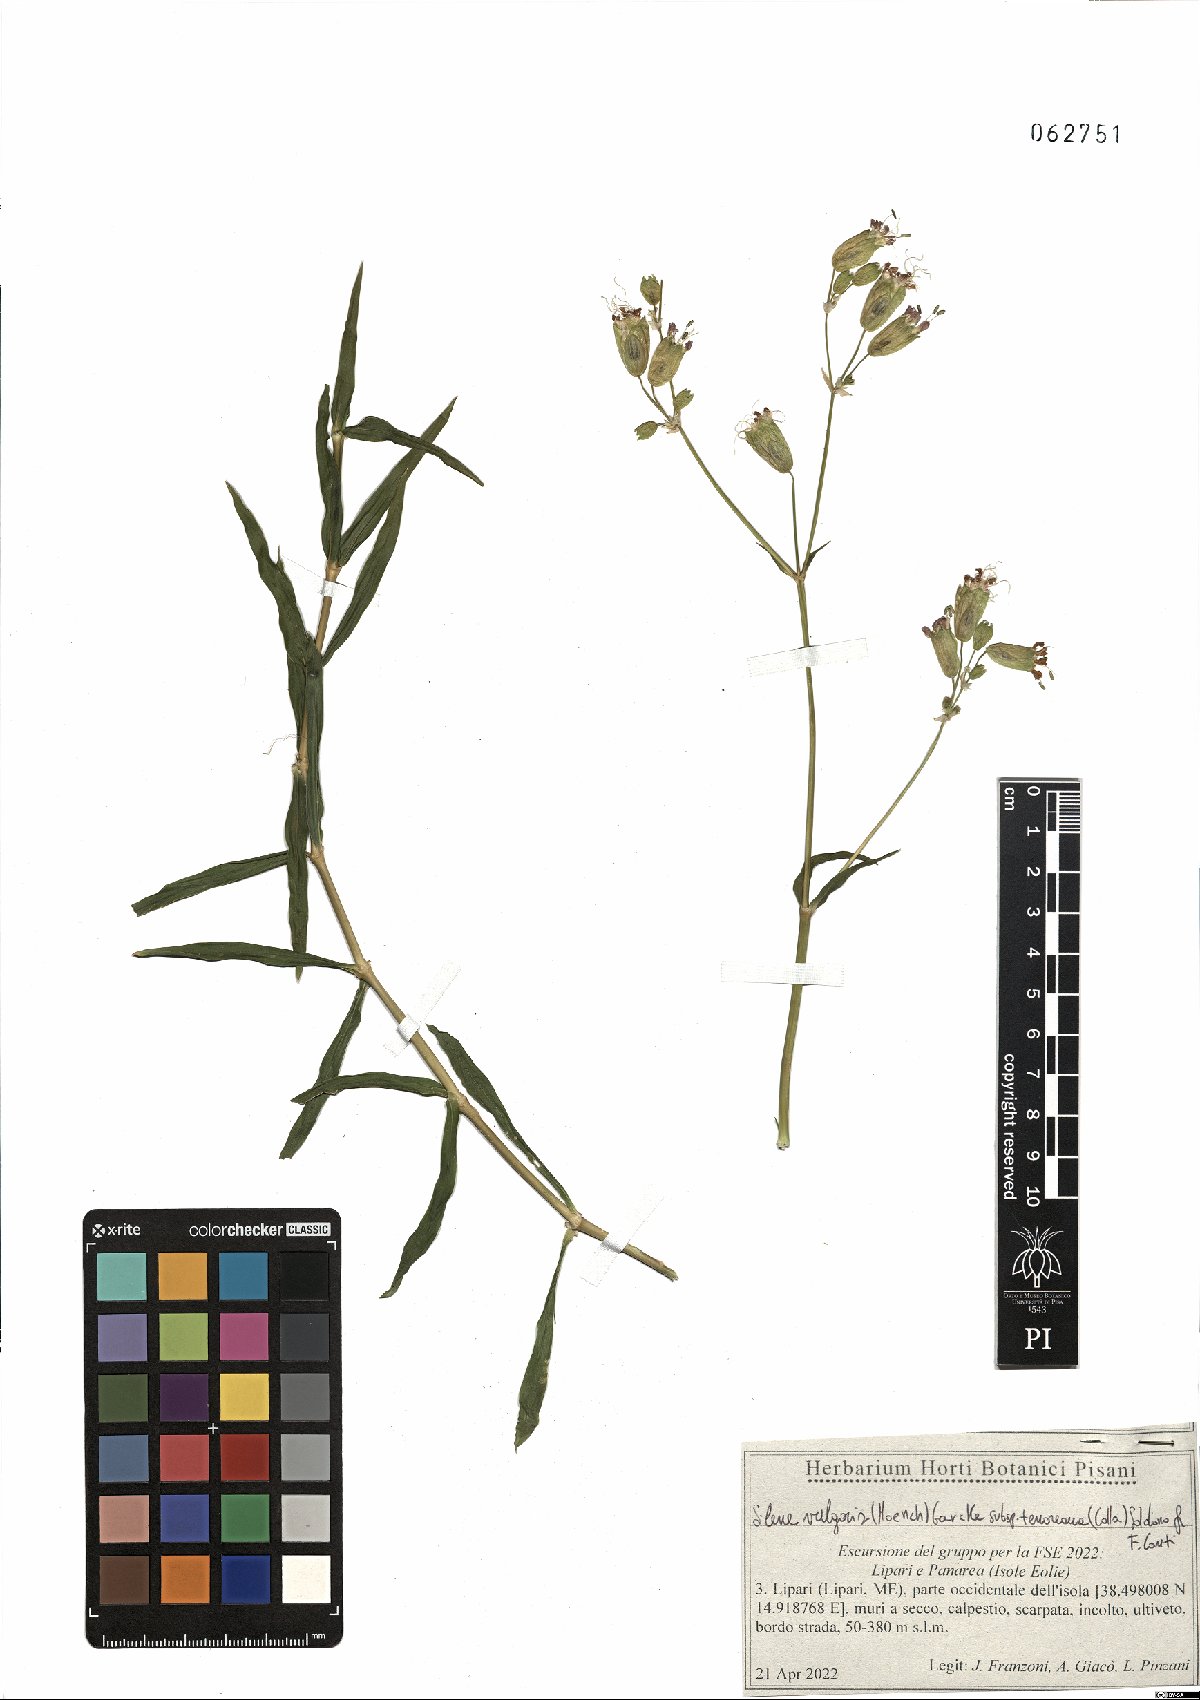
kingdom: Plantae
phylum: Tracheophyta
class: Magnoliopsida
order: Caryophyllales
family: Caryophyllaceae
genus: Silene
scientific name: Silene vulgaris
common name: Bladder campion
